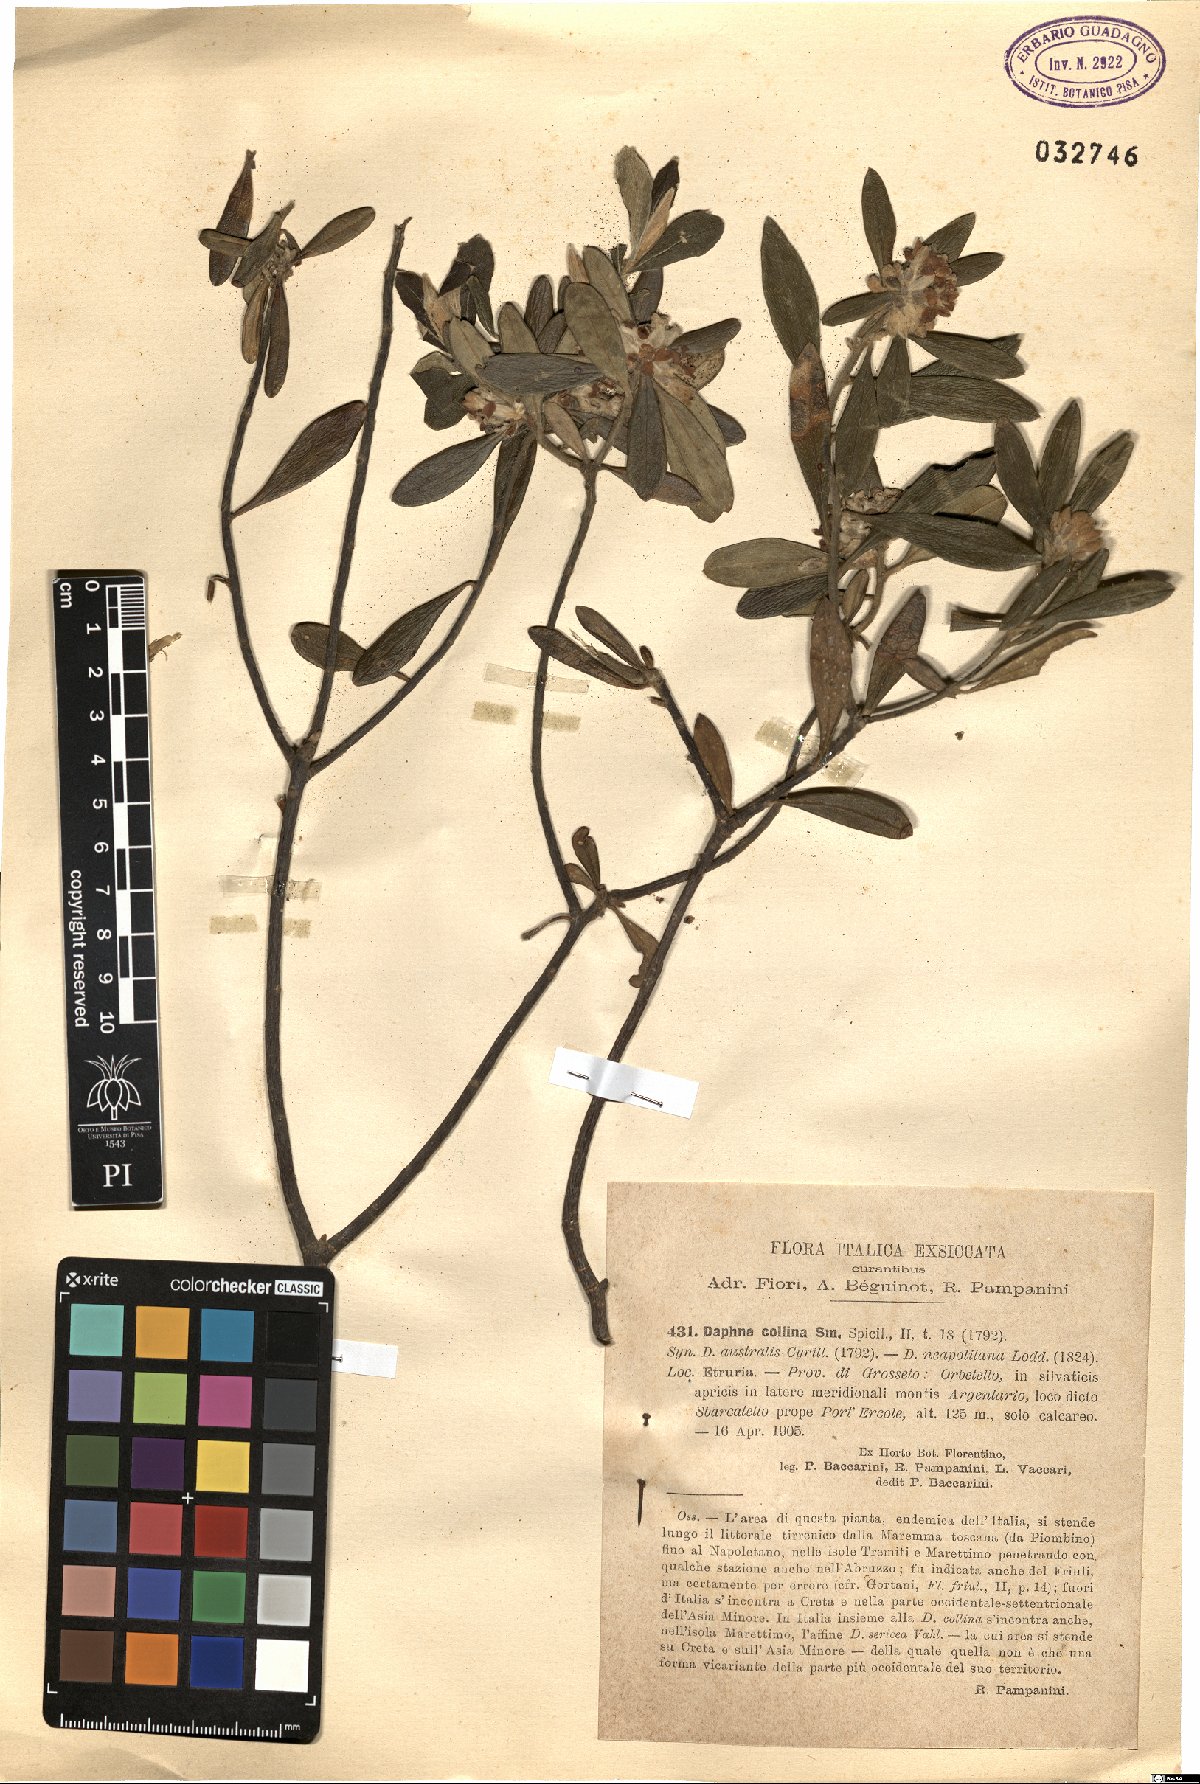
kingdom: Plantae
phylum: Tracheophyta
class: Magnoliopsida
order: Malvales
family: Thymelaeaceae
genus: Daphne
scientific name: Daphne sericea
